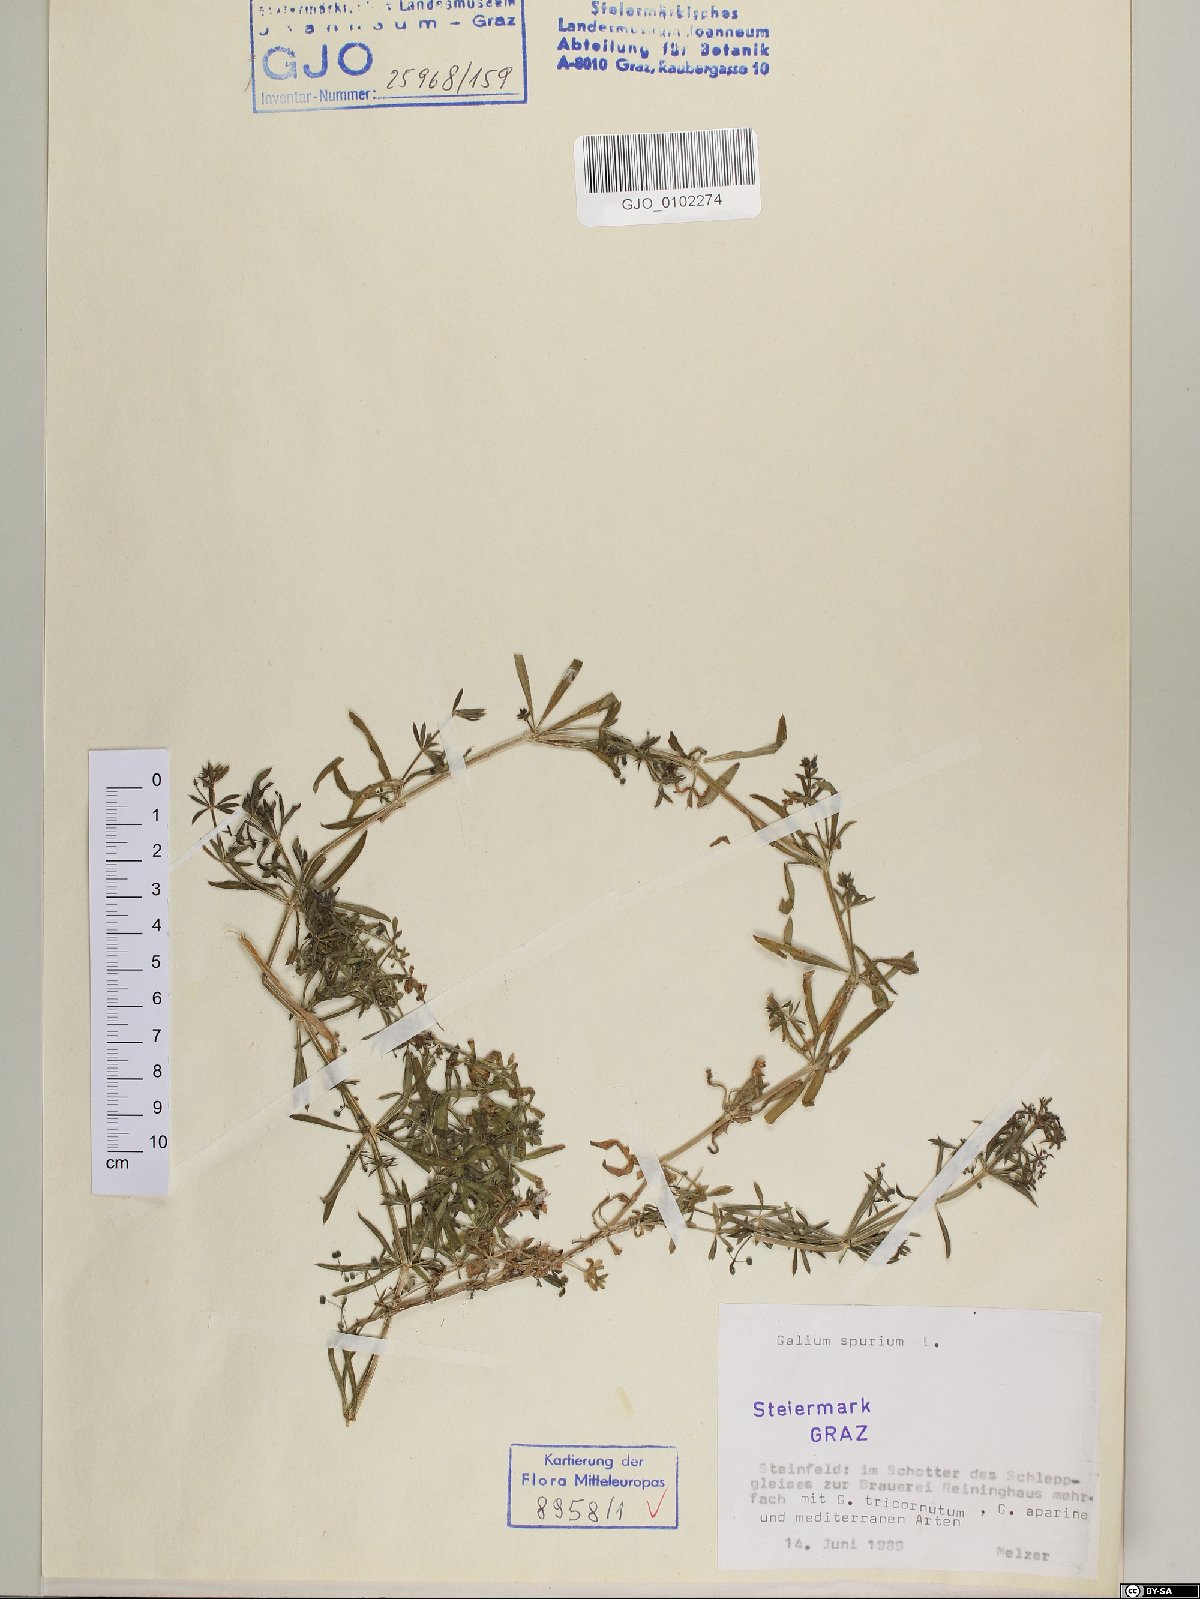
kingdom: Plantae
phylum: Tracheophyta
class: Magnoliopsida
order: Gentianales
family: Rubiaceae
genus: Galium
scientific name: Galium spurium
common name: False cleavers
